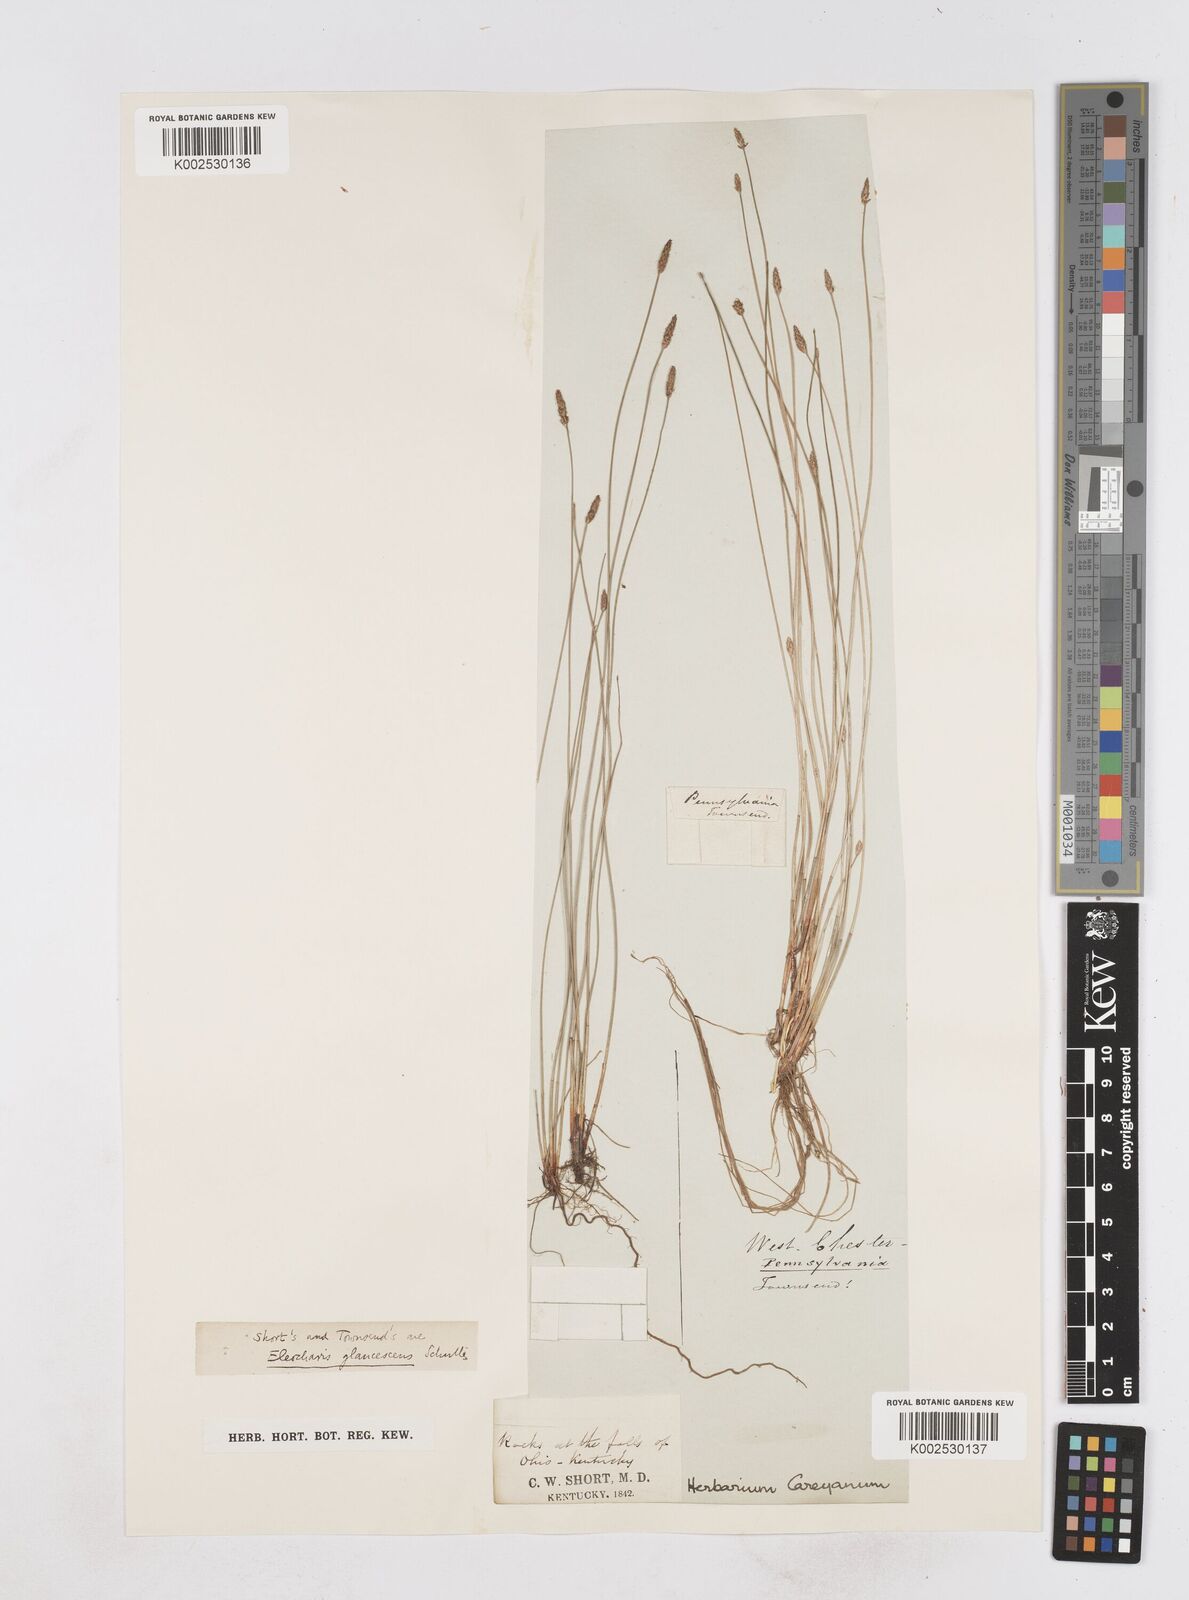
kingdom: Plantae
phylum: Tracheophyta
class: Liliopsida
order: Poales
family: Cyperaceae
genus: Eleocharis
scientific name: Eleocharis erythropoda
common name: Bald spikerush
